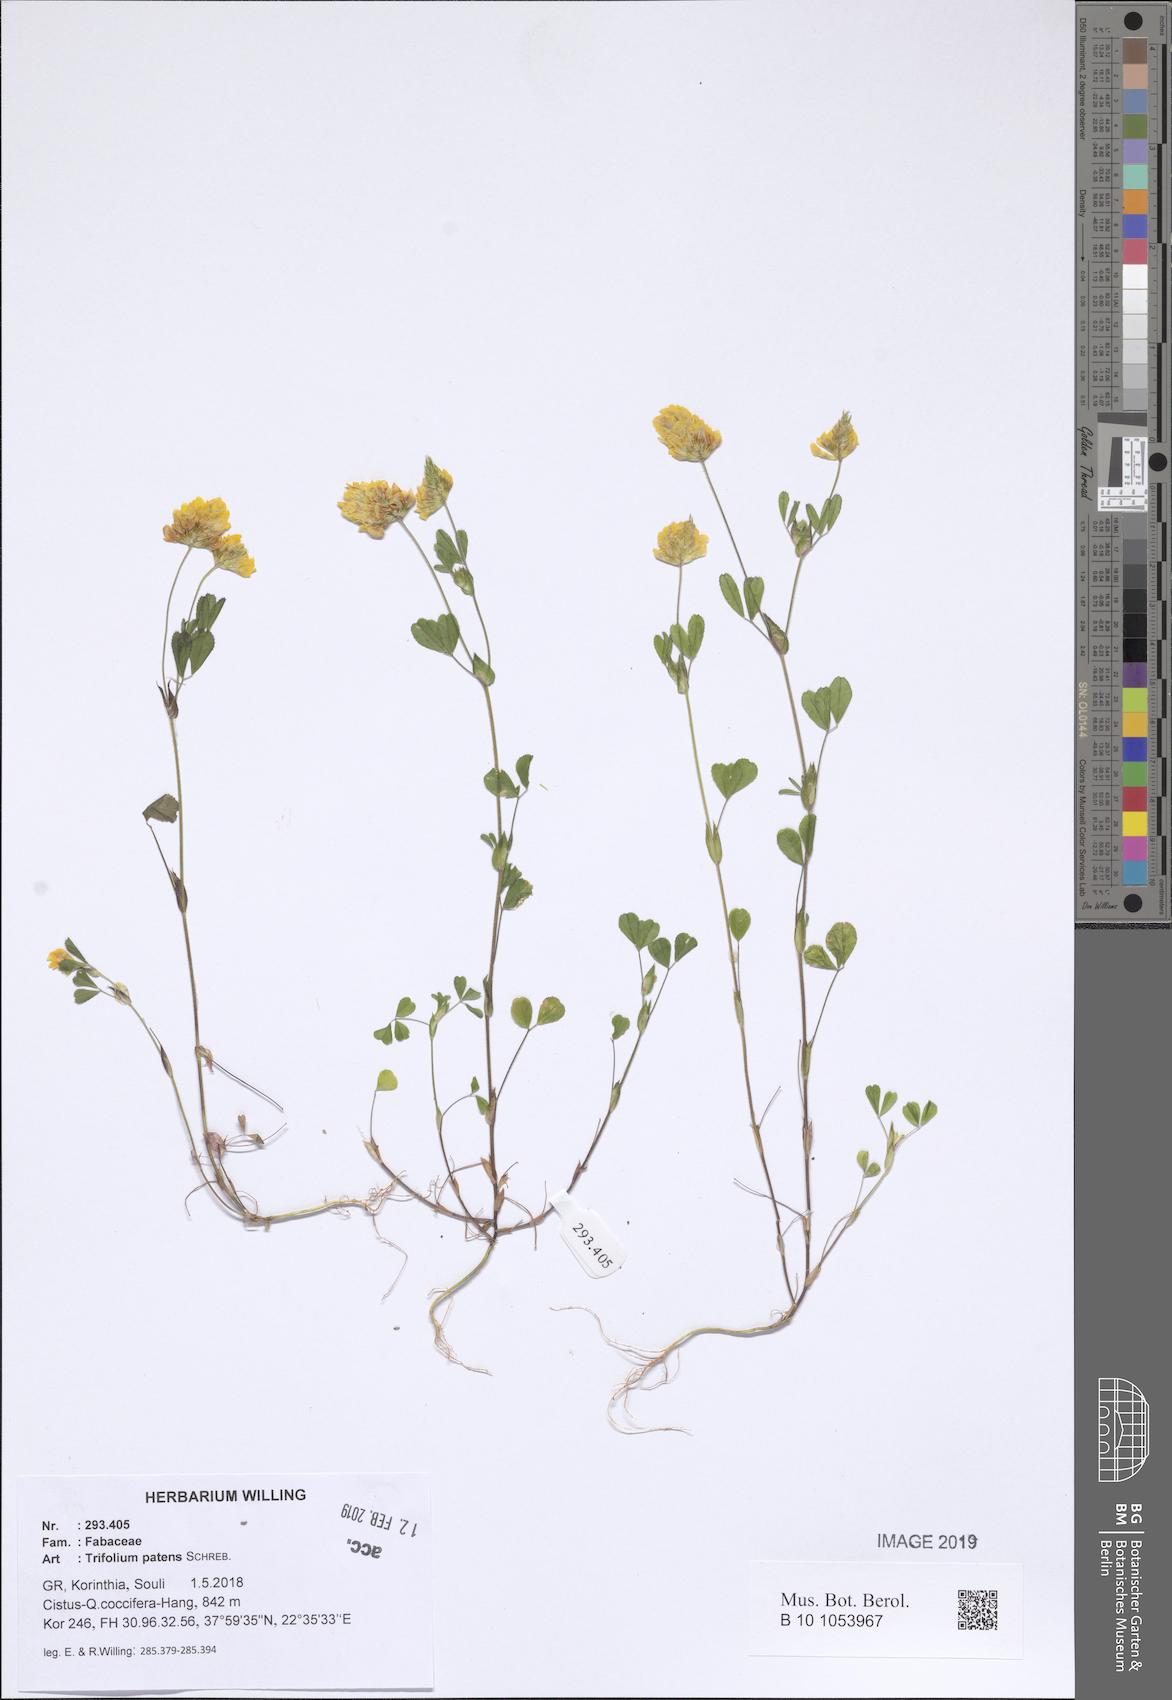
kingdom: Plantae
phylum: Tracheophyta
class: Magnoliopsida
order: Fabales
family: Fabaceae
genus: Trifolium
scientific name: Trifolium patens
